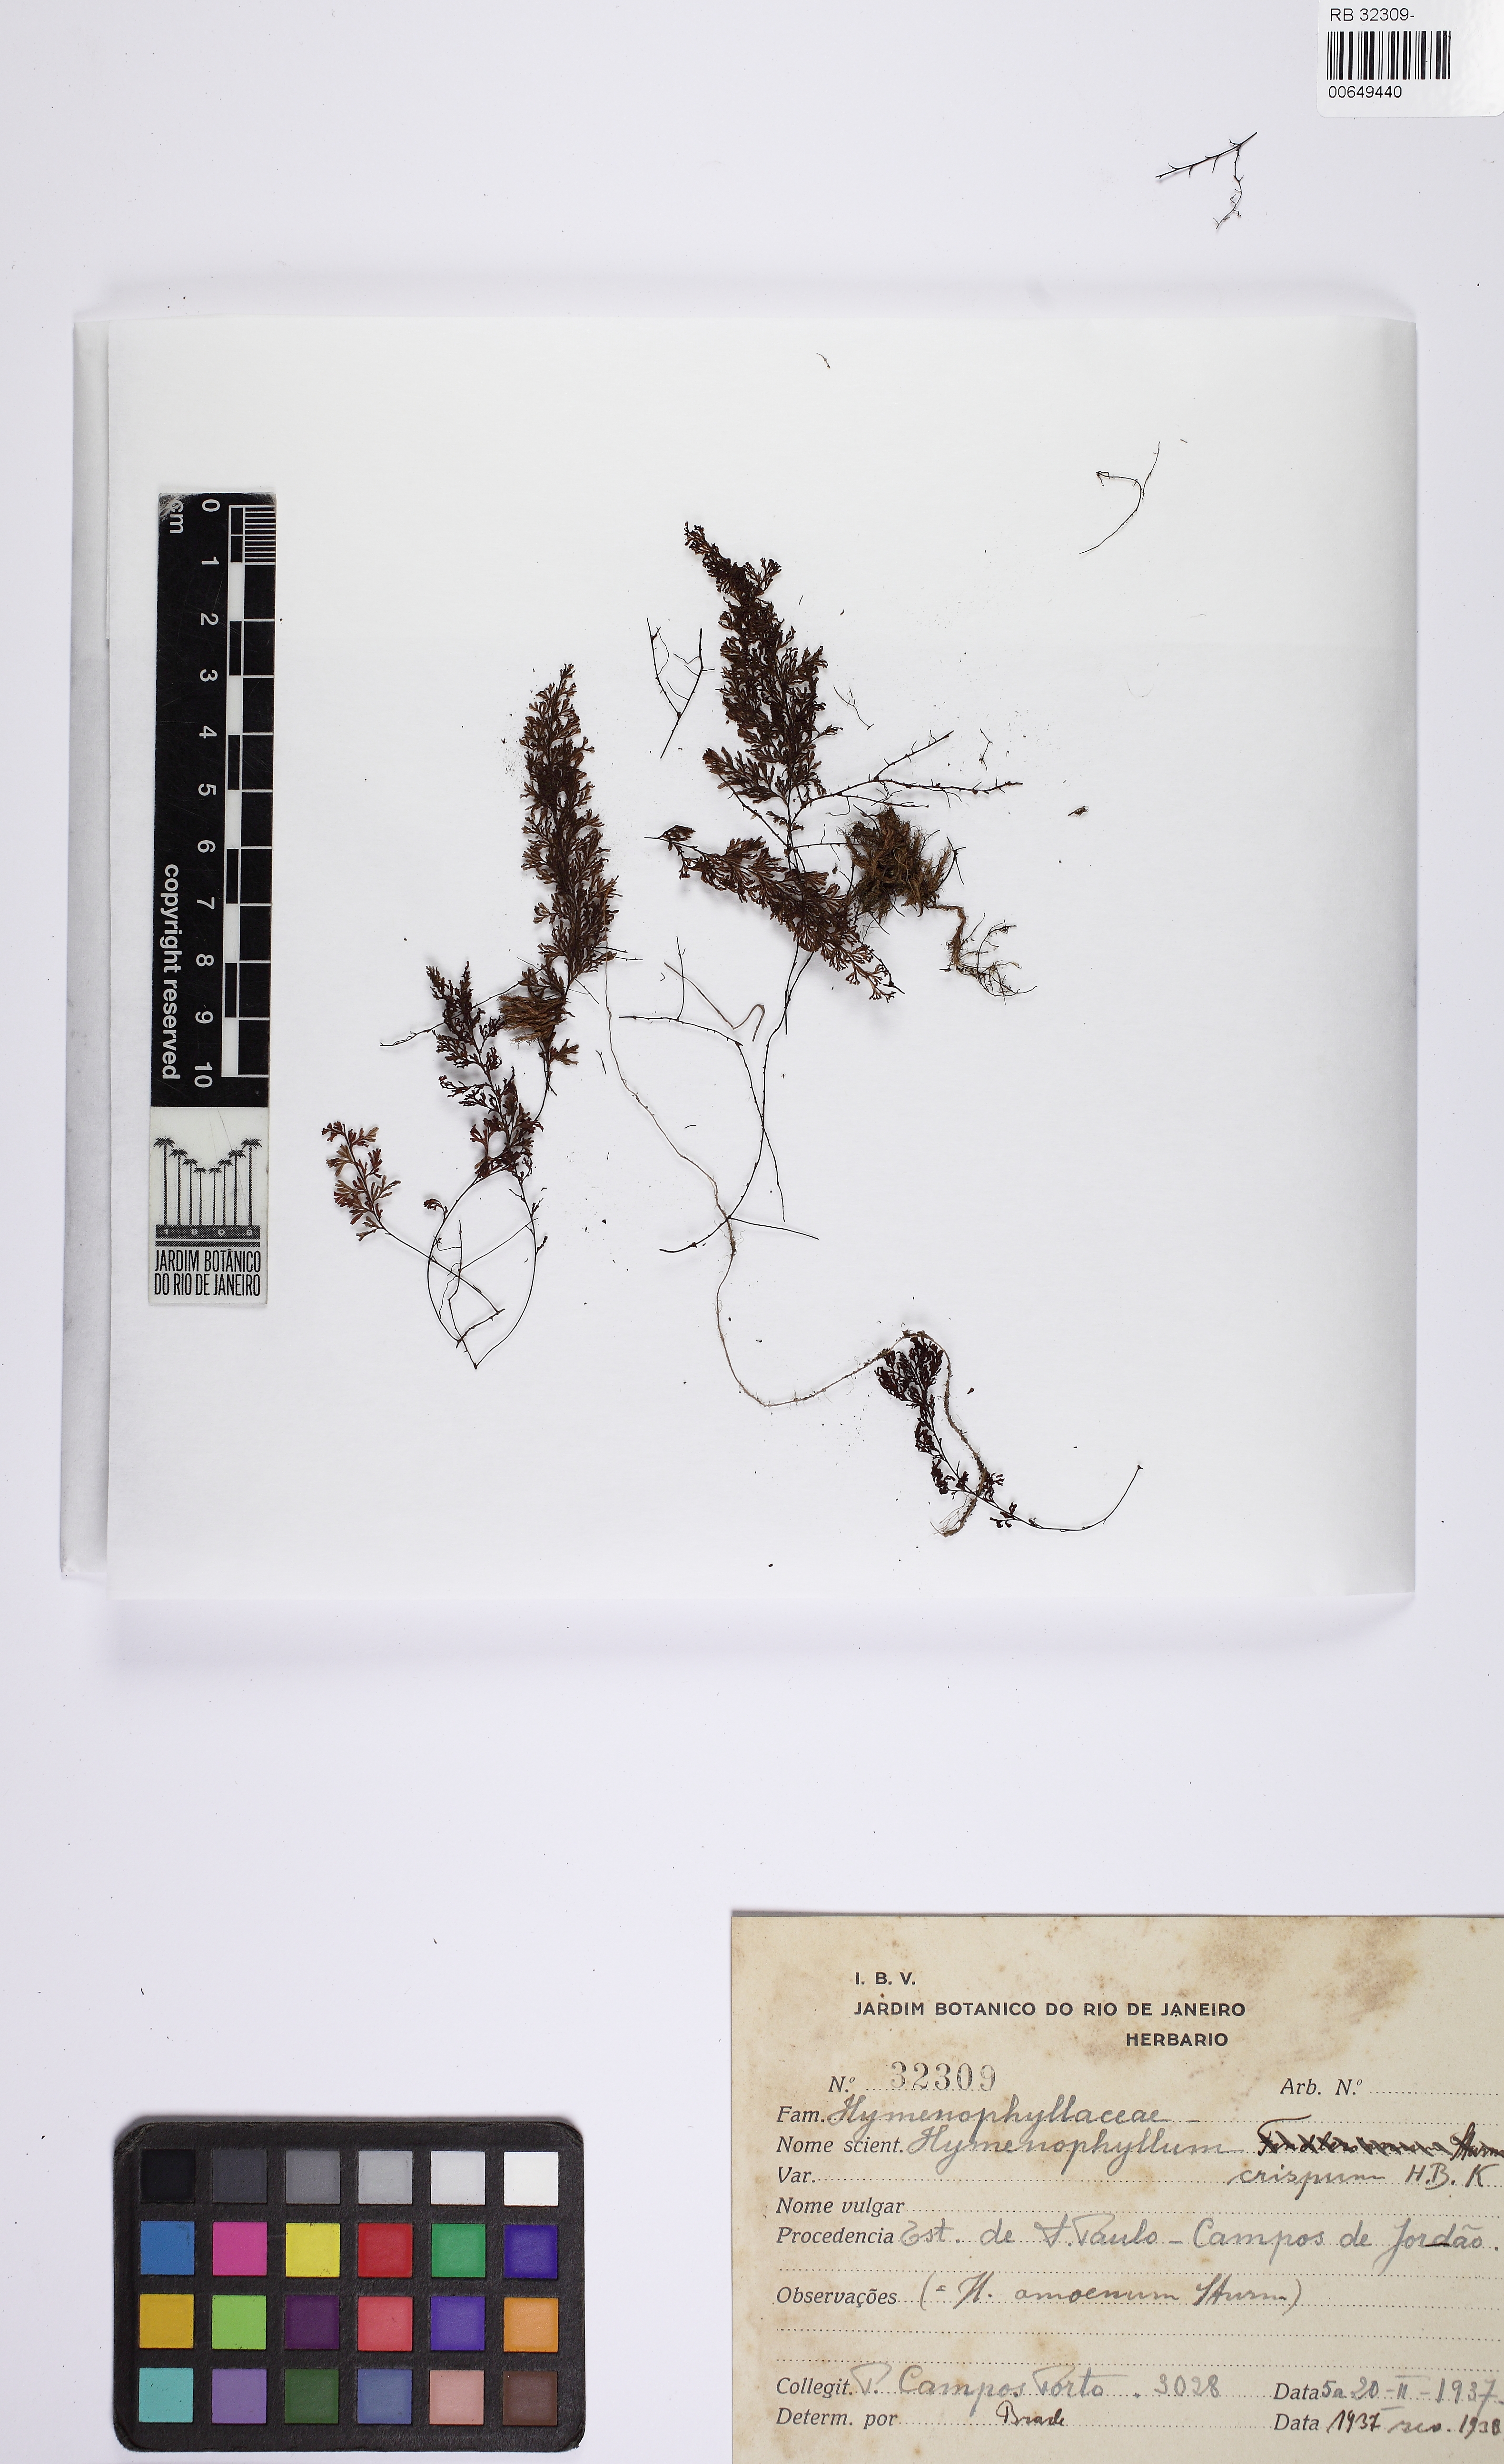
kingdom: Plantae
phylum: Tracheophyta
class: Polypodiopsida
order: Hymenophyllales
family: Hymenophyllaceae
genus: Hymenophyllum
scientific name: Hymenophyllum fendlerianum
